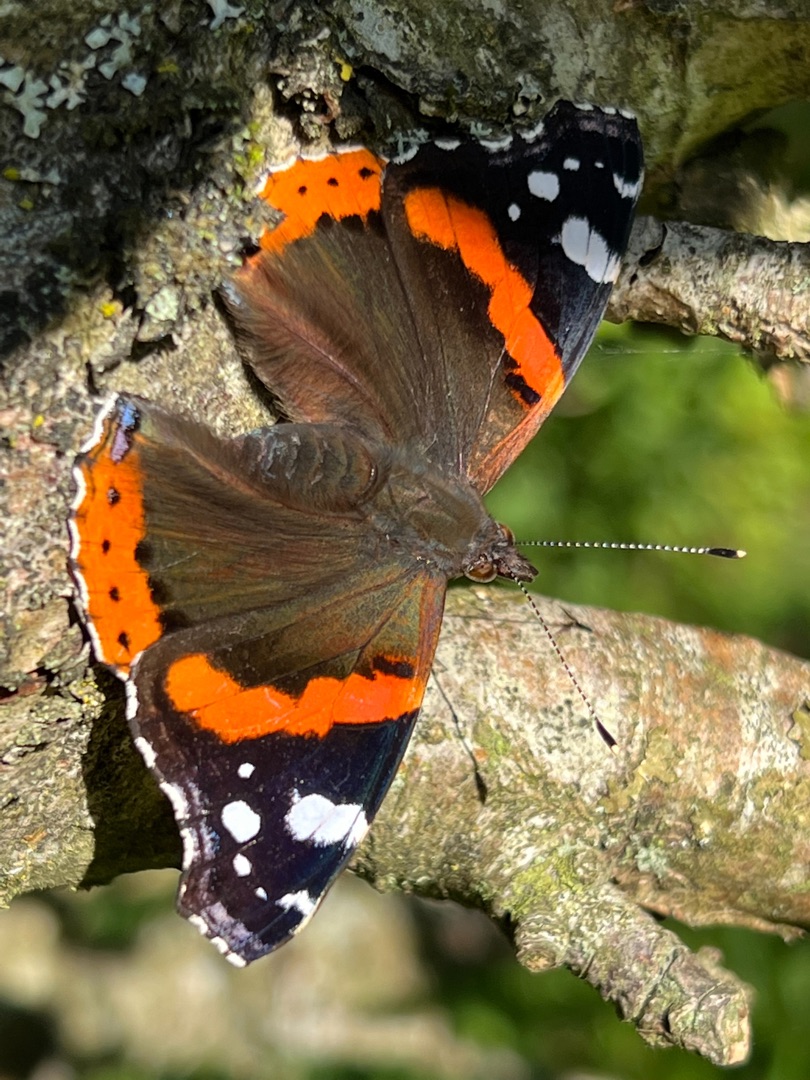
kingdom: Animalia
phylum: Arthropoda
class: Insecta
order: Lepidoptera
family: Nymphalidae
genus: Vanessa
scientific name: Vanessa atalanta
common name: Admiral
